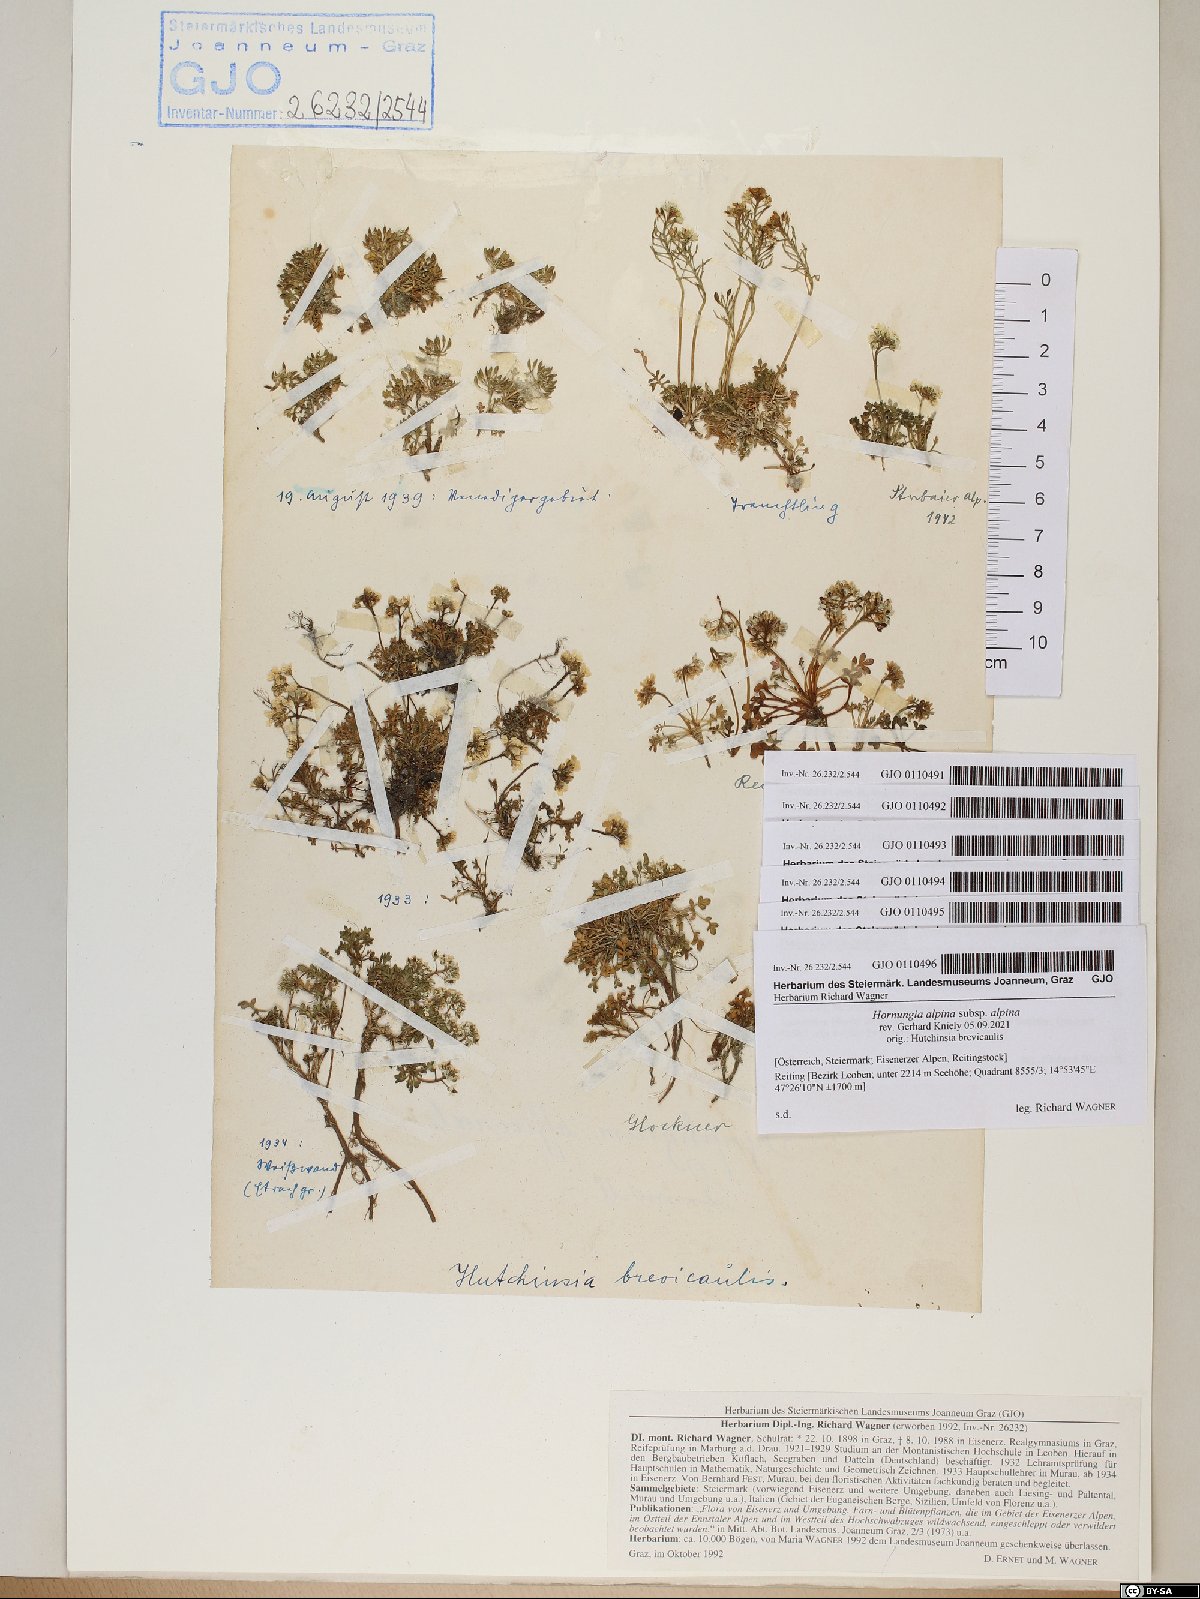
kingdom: Plantae
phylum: Tracheophyta
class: Magnoliopsida
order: Brassicales
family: Brassicaceae
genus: Hornungia
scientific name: Hornungia alpina
